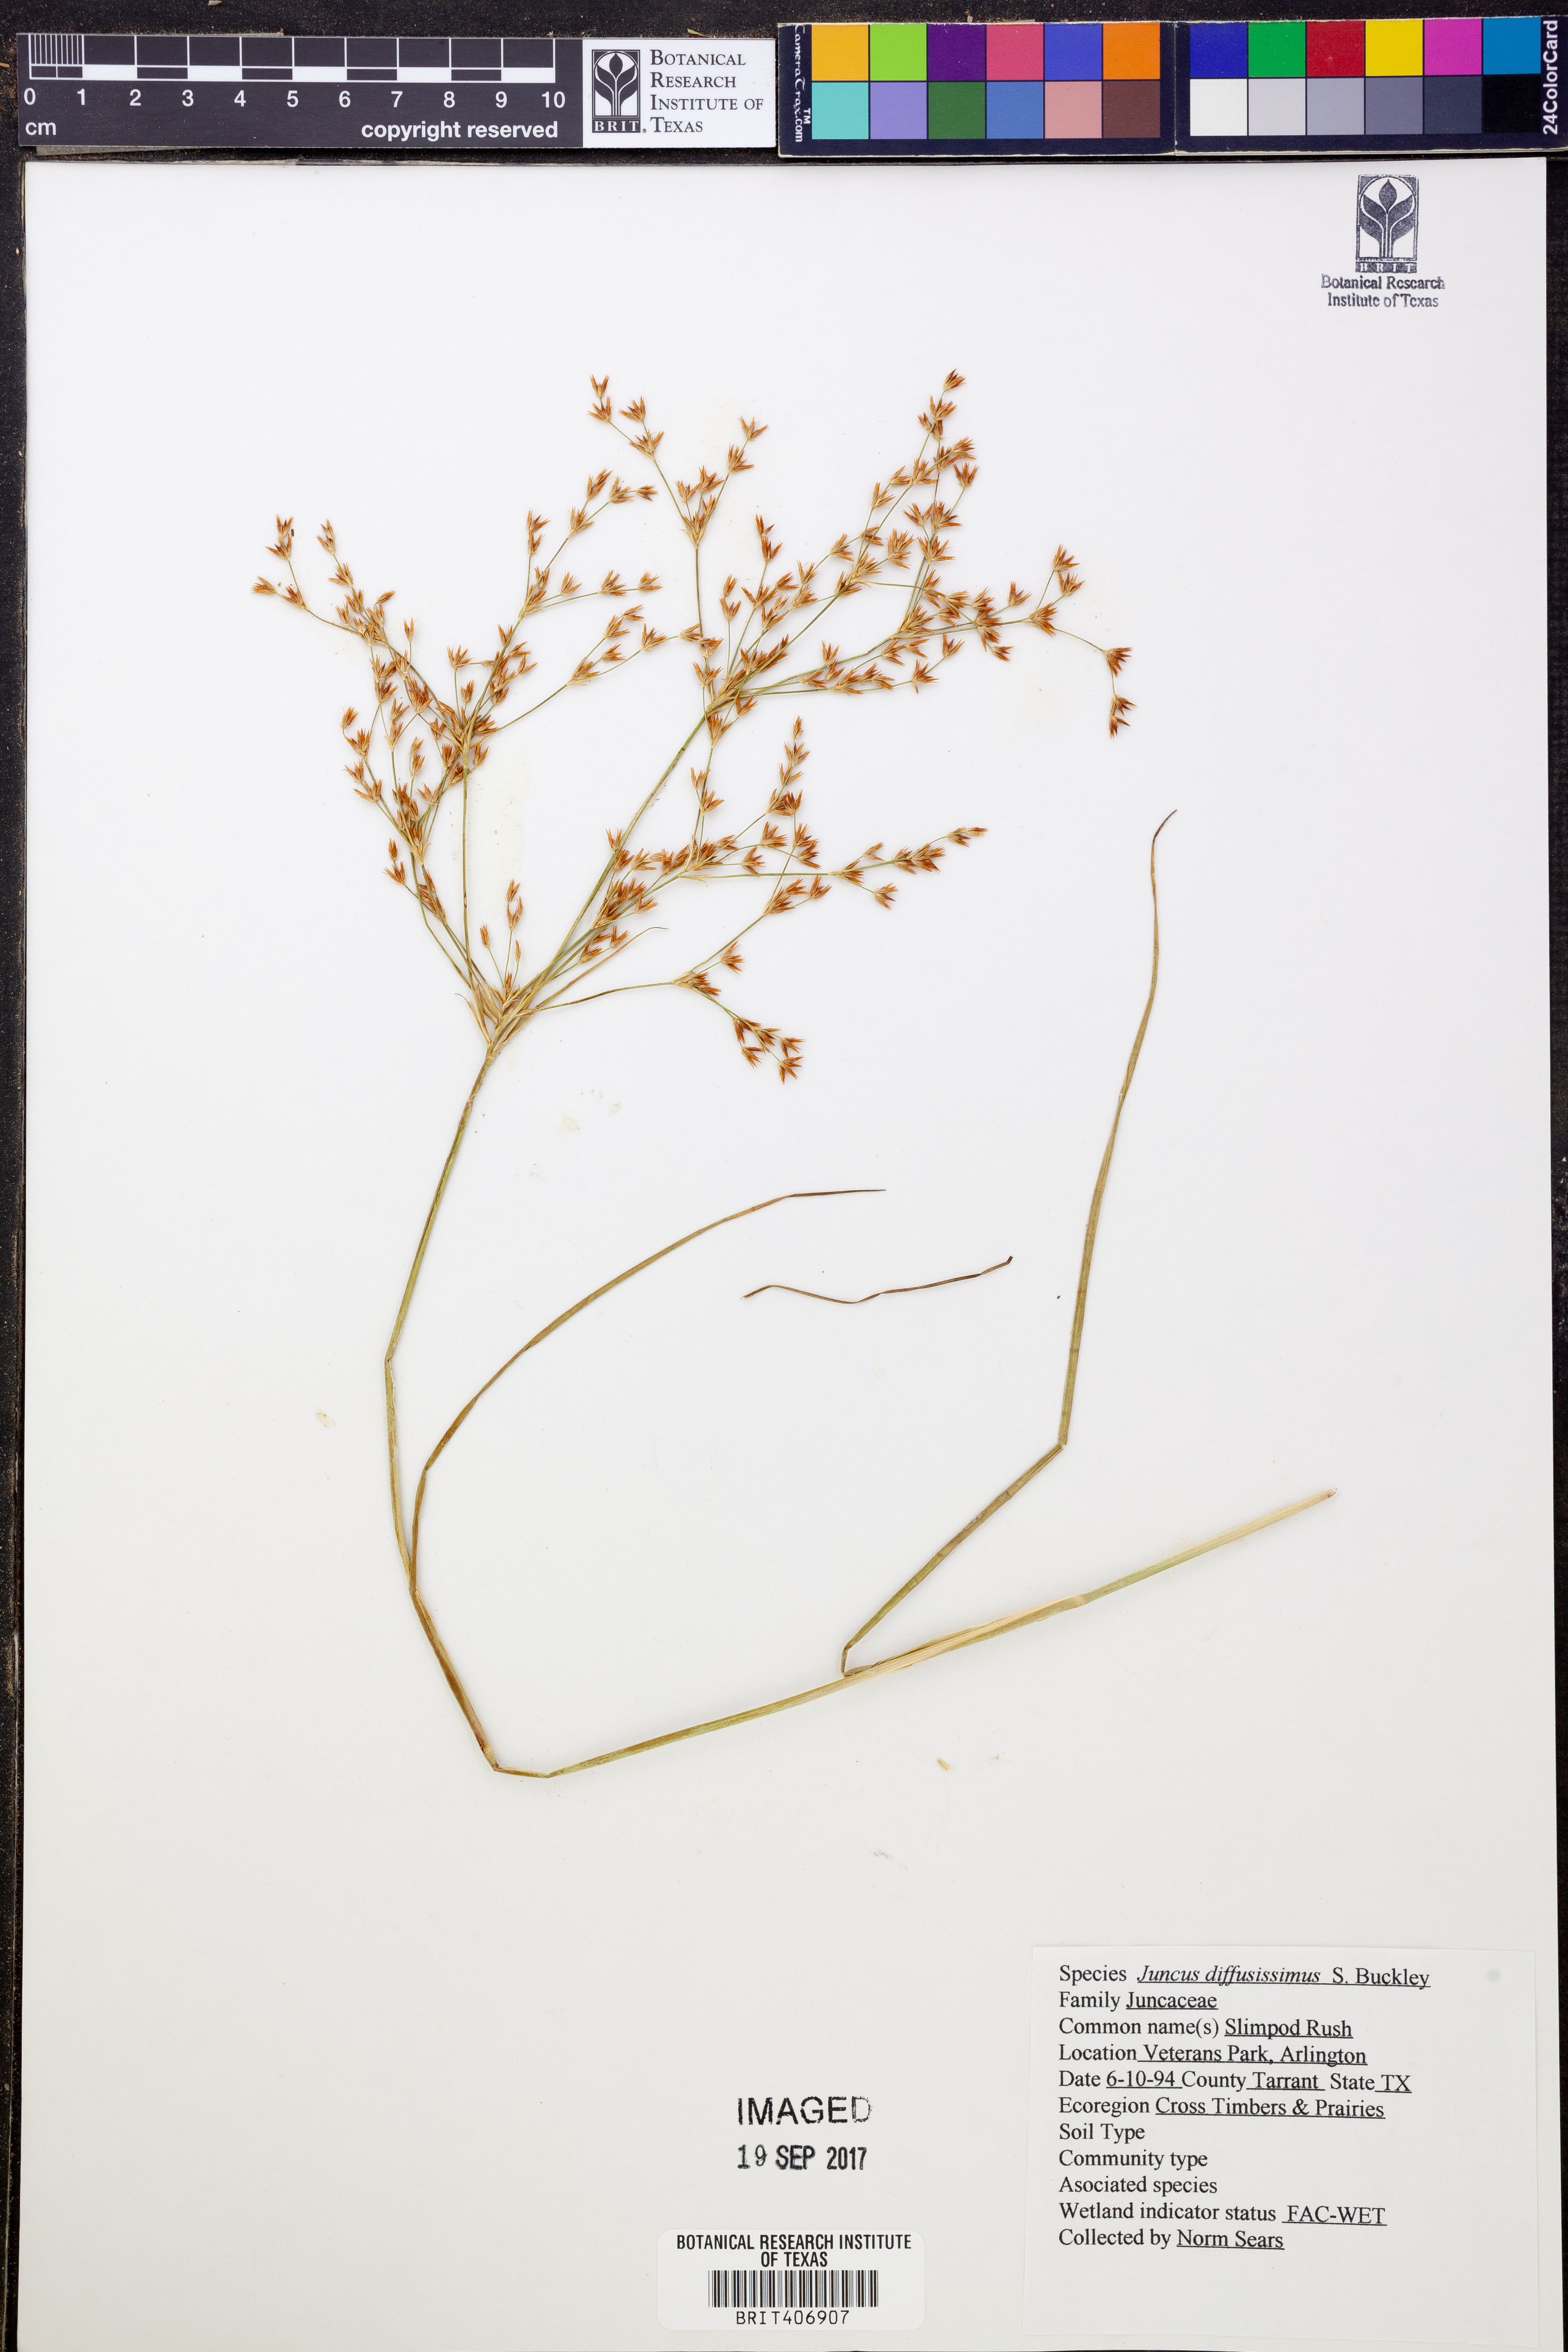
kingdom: Plantae
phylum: Tracheophyta
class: Liliopsida
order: Poales
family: Juncaceae
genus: Juncus
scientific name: Juncus diffusissimus
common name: Slimpod rush
